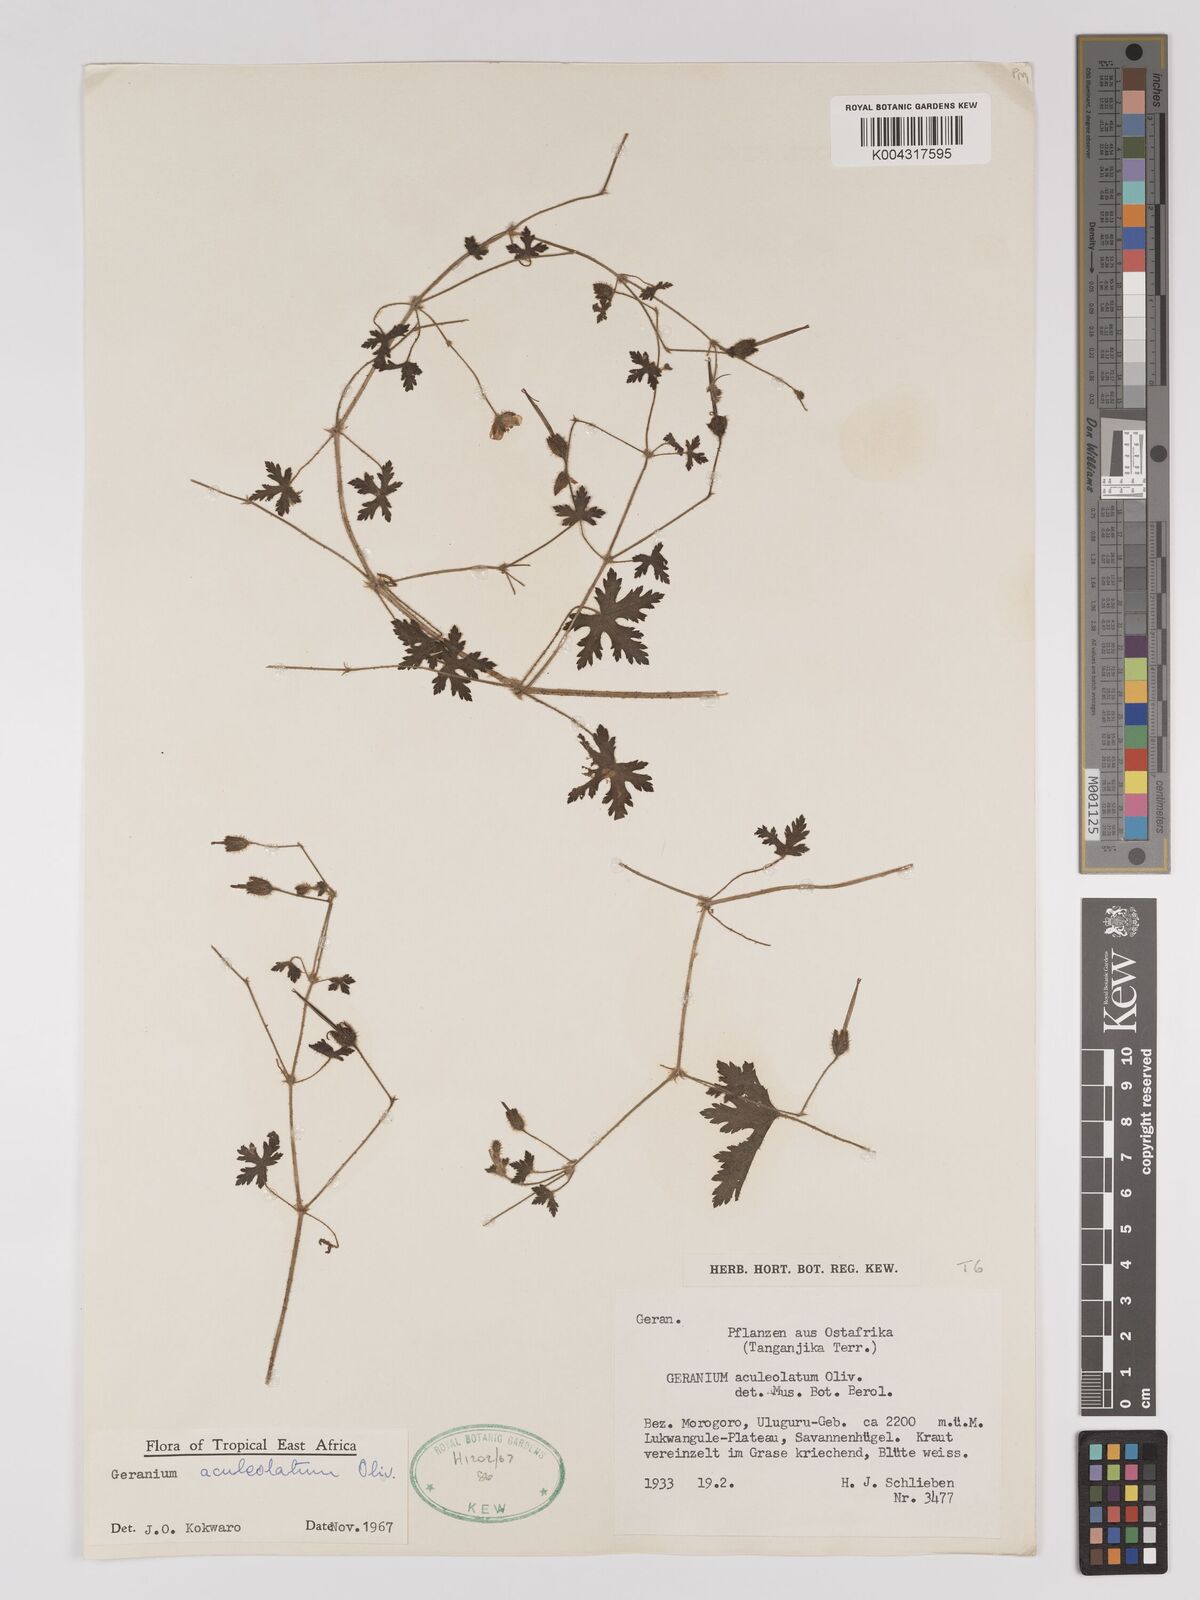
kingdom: Plantae
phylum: Tracheophyta
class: Magnoliopsida
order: Geraniales
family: Geraniaceae
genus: Geranium
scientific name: Geranium aculeolatum
